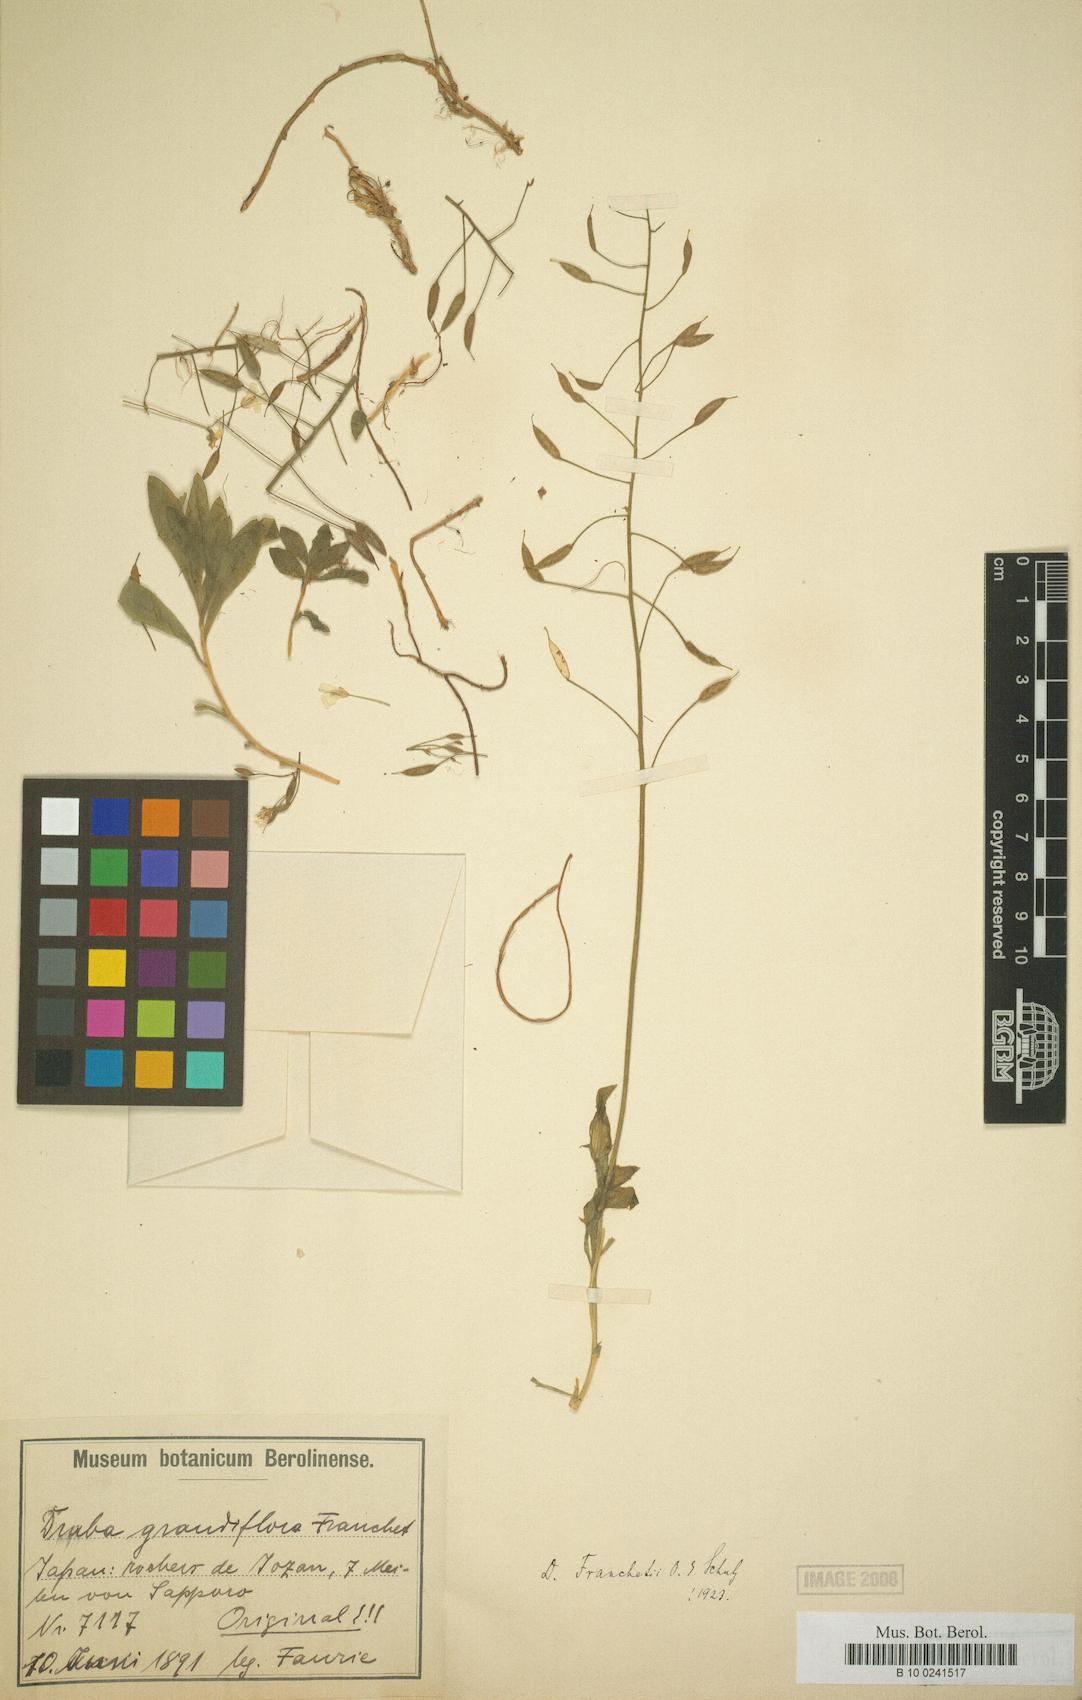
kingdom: Plantae
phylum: Tracheophyta
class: Magnoliopsida
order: Brassicales
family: Brassicaceae
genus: Draba
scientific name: Draba sachalinensis
